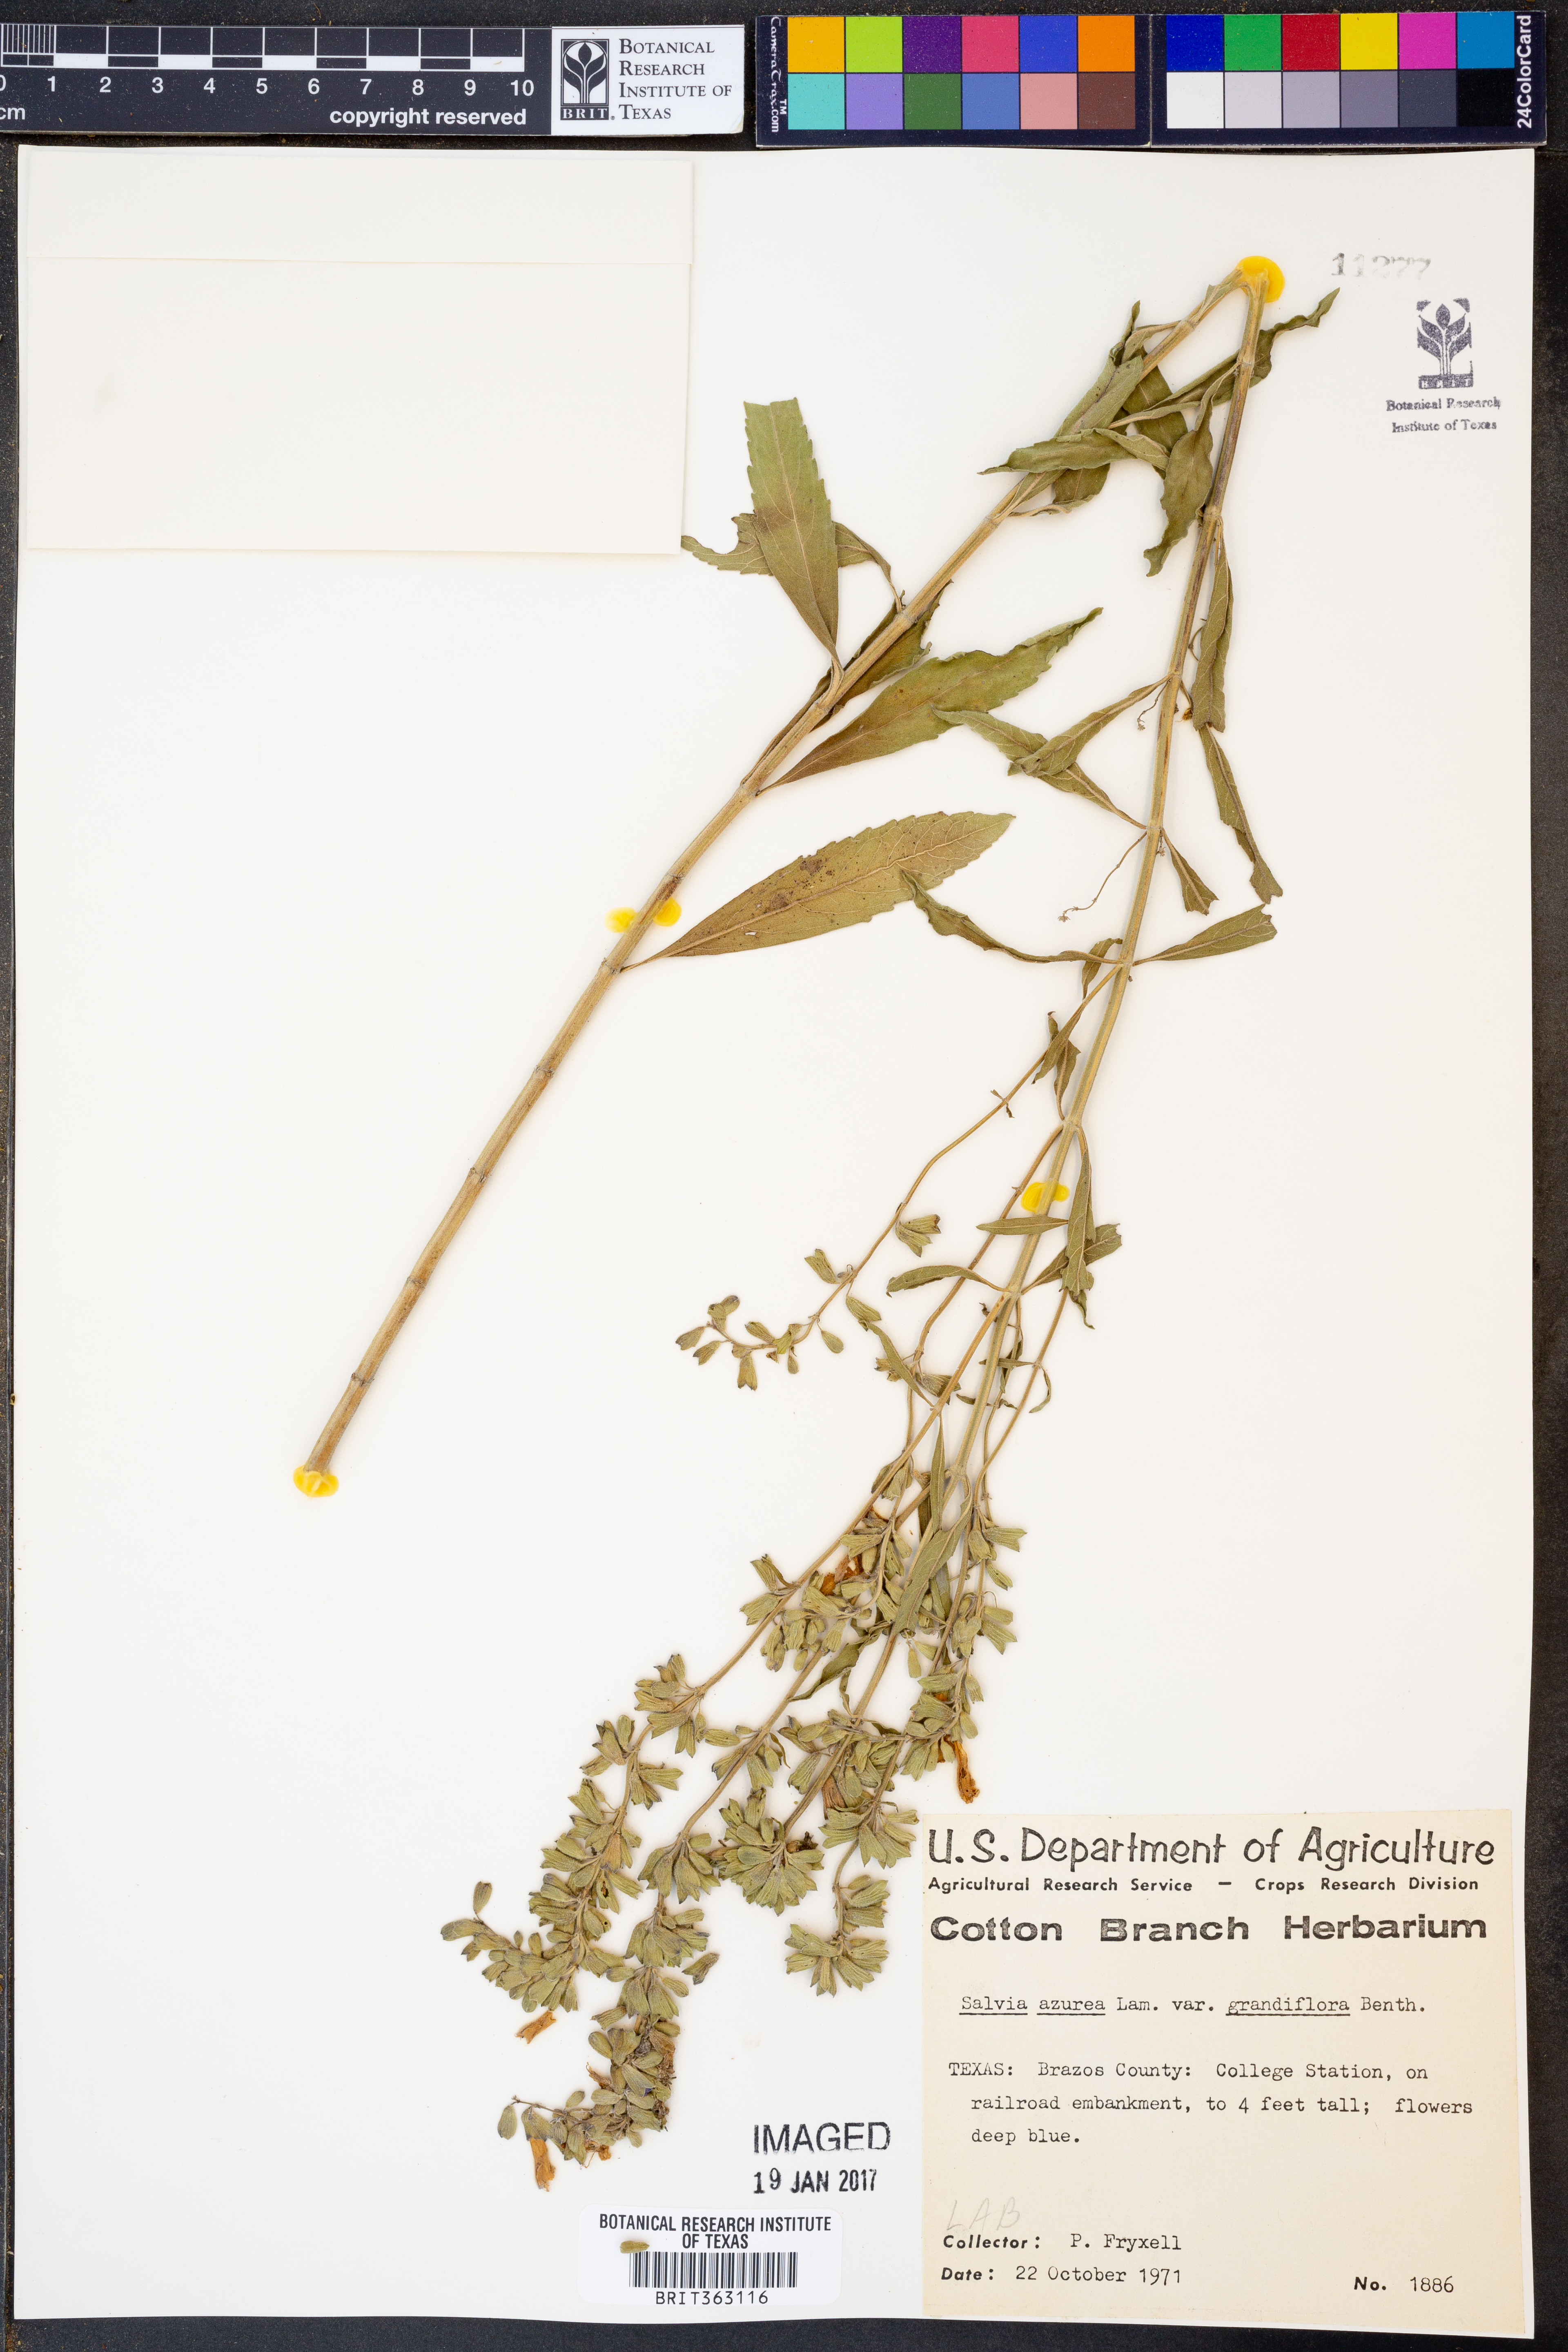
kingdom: Plantae
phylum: Tracheophyta
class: Magnoliopsida
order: Lamiales
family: Lamiaceae
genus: Salvia
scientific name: Salvia azurea
